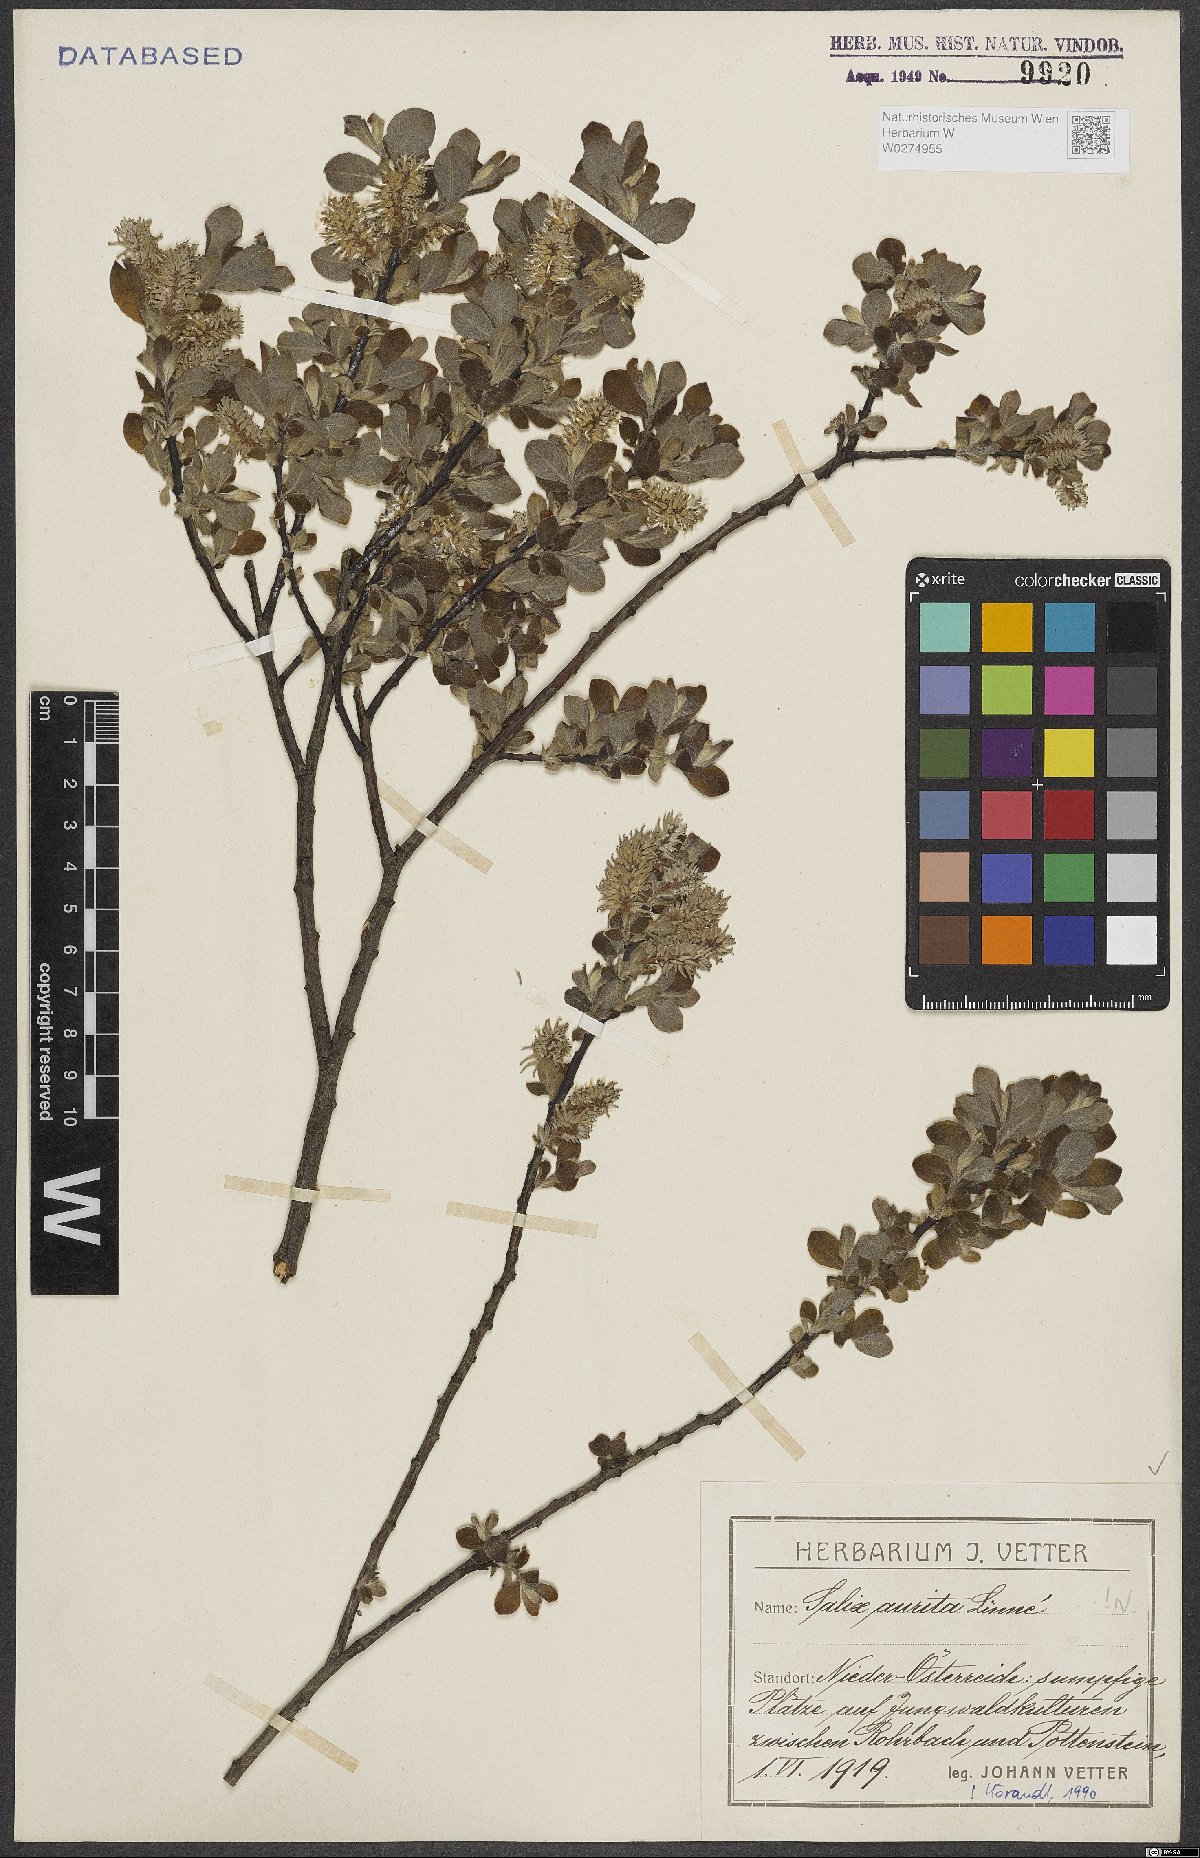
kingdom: Plantae
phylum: Tracheophyta
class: Magnoliopsida
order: Malpighiales
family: Salicaceae
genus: Salix
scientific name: Salix aurita
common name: Eared willow
